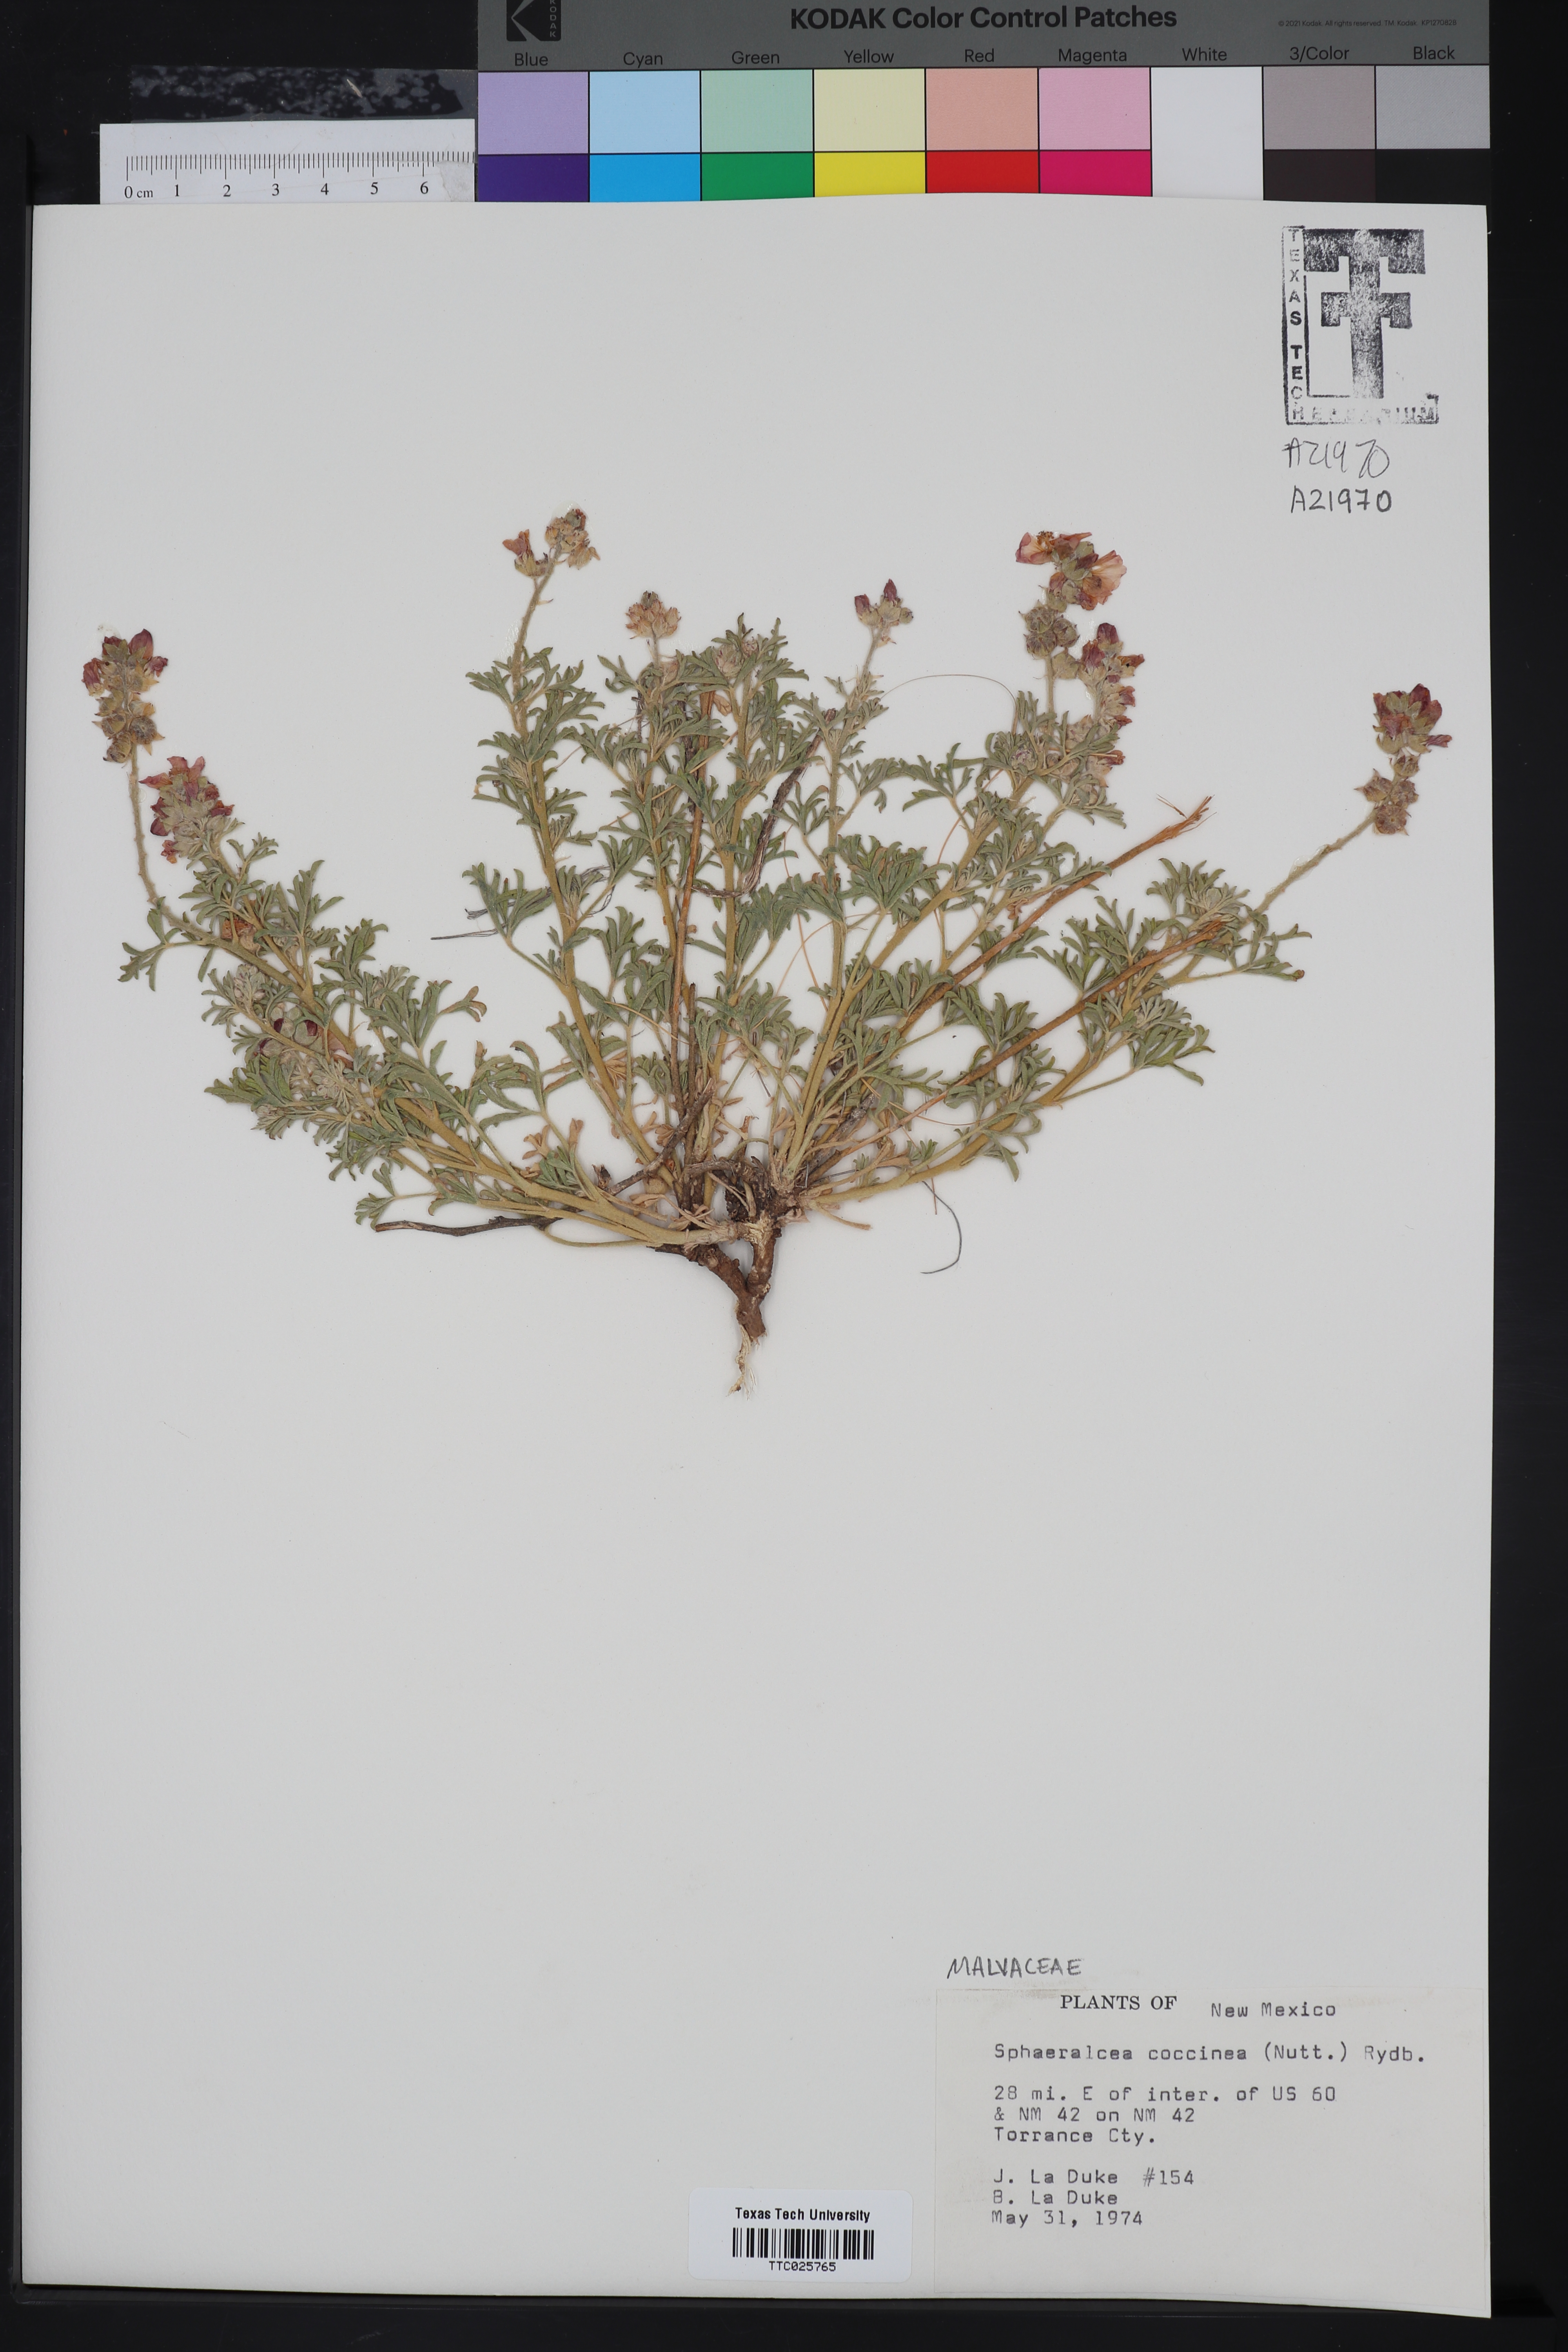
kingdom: Plantae
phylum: Tracheophyta
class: Magnoliopsida
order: Malvales
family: Malvaceae
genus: Sphaeralcea
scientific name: Sphaeralcea coccinea
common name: Moss-rose
